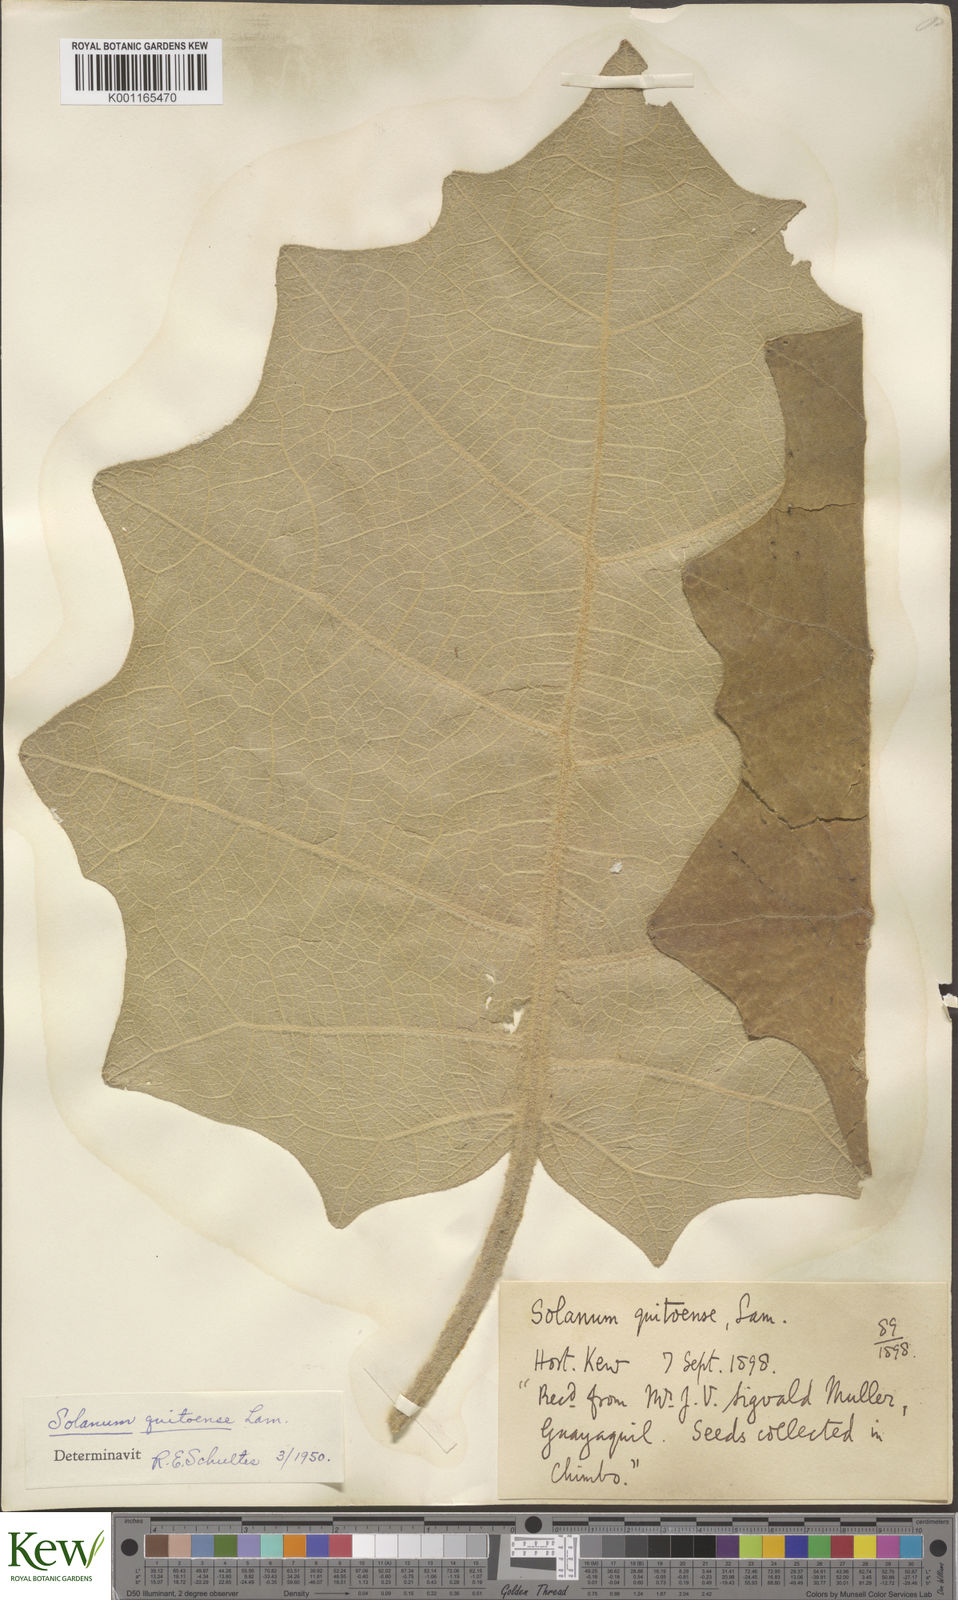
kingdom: Plantae
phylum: Tracheophyta
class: Magnoliopsida
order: Solanales
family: Solanaceae
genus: Solanum
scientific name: Solanum quitoense
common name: Quito-orange
